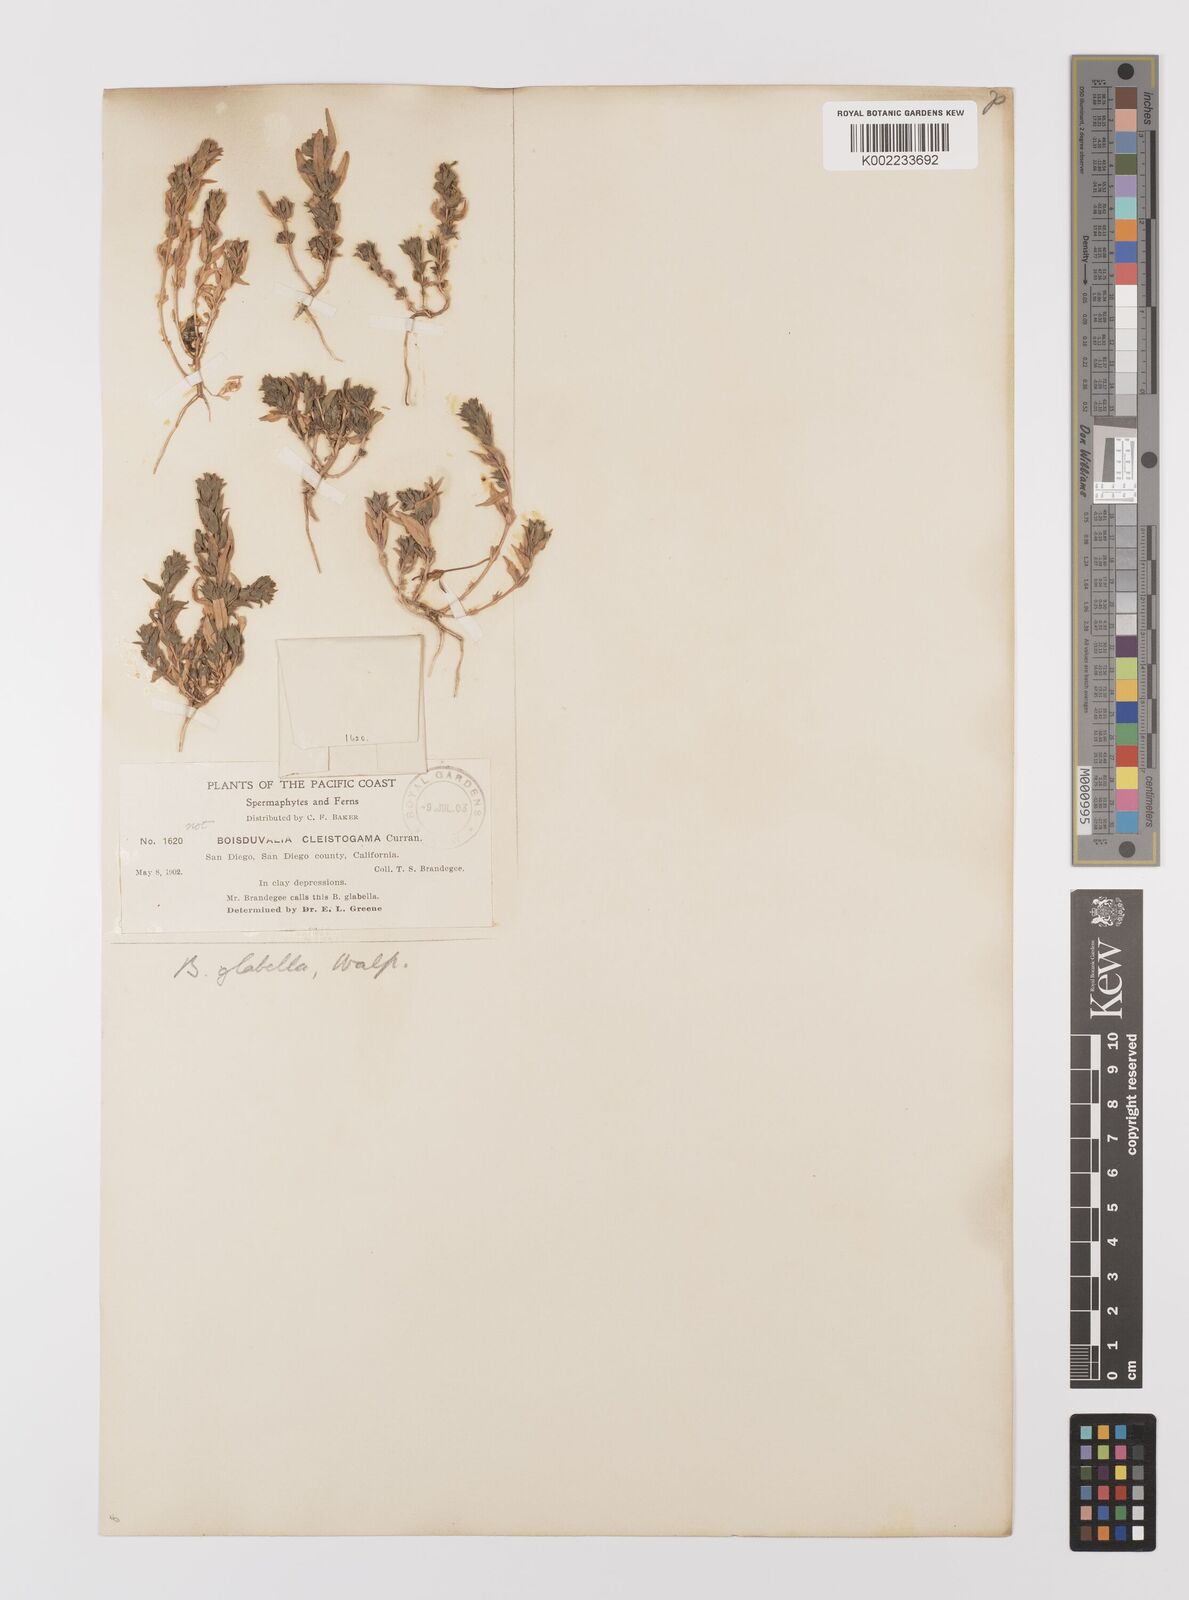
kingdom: Plantae
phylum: Tracheophyta
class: Magnoliopsida
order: Myrtales
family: Onagraceae
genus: Epilobium
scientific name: Epilobium campestre
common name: Smooth spike-primrose
